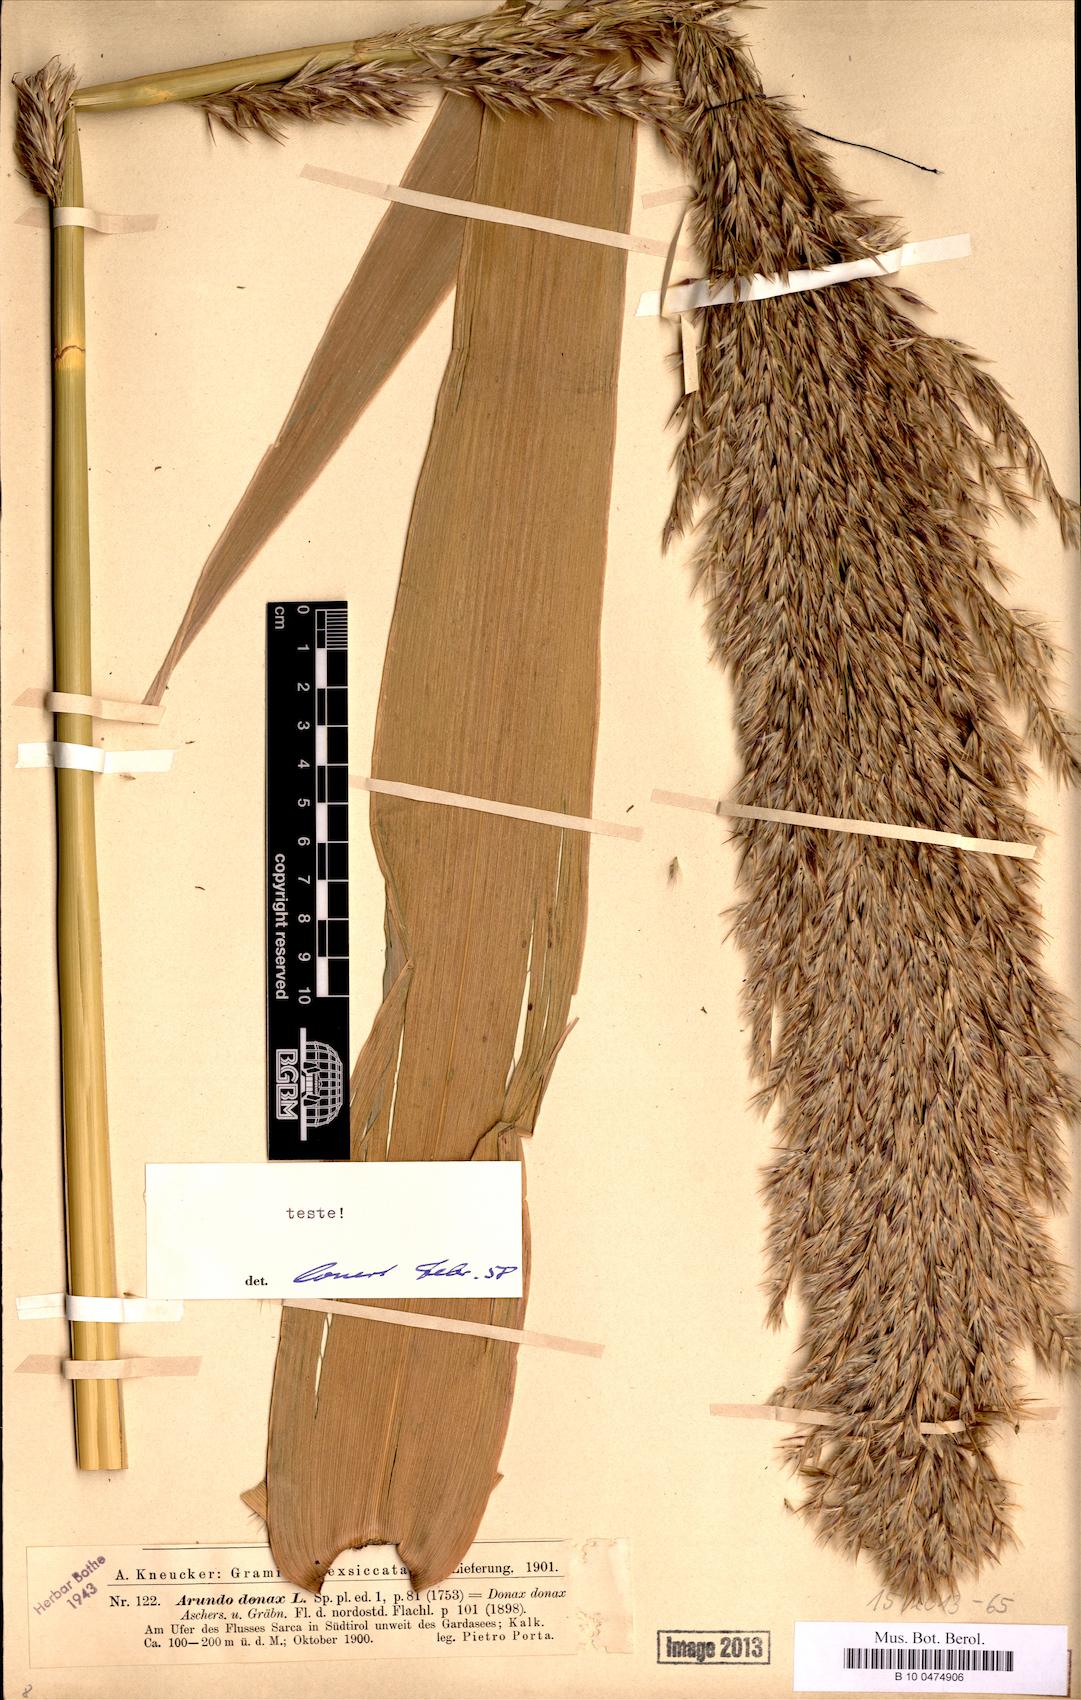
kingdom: Plantae
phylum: Tracheophyta
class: Liliopsida
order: Poales
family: Poaceae
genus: Arundo
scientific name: Arundo donax
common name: Giant reed
